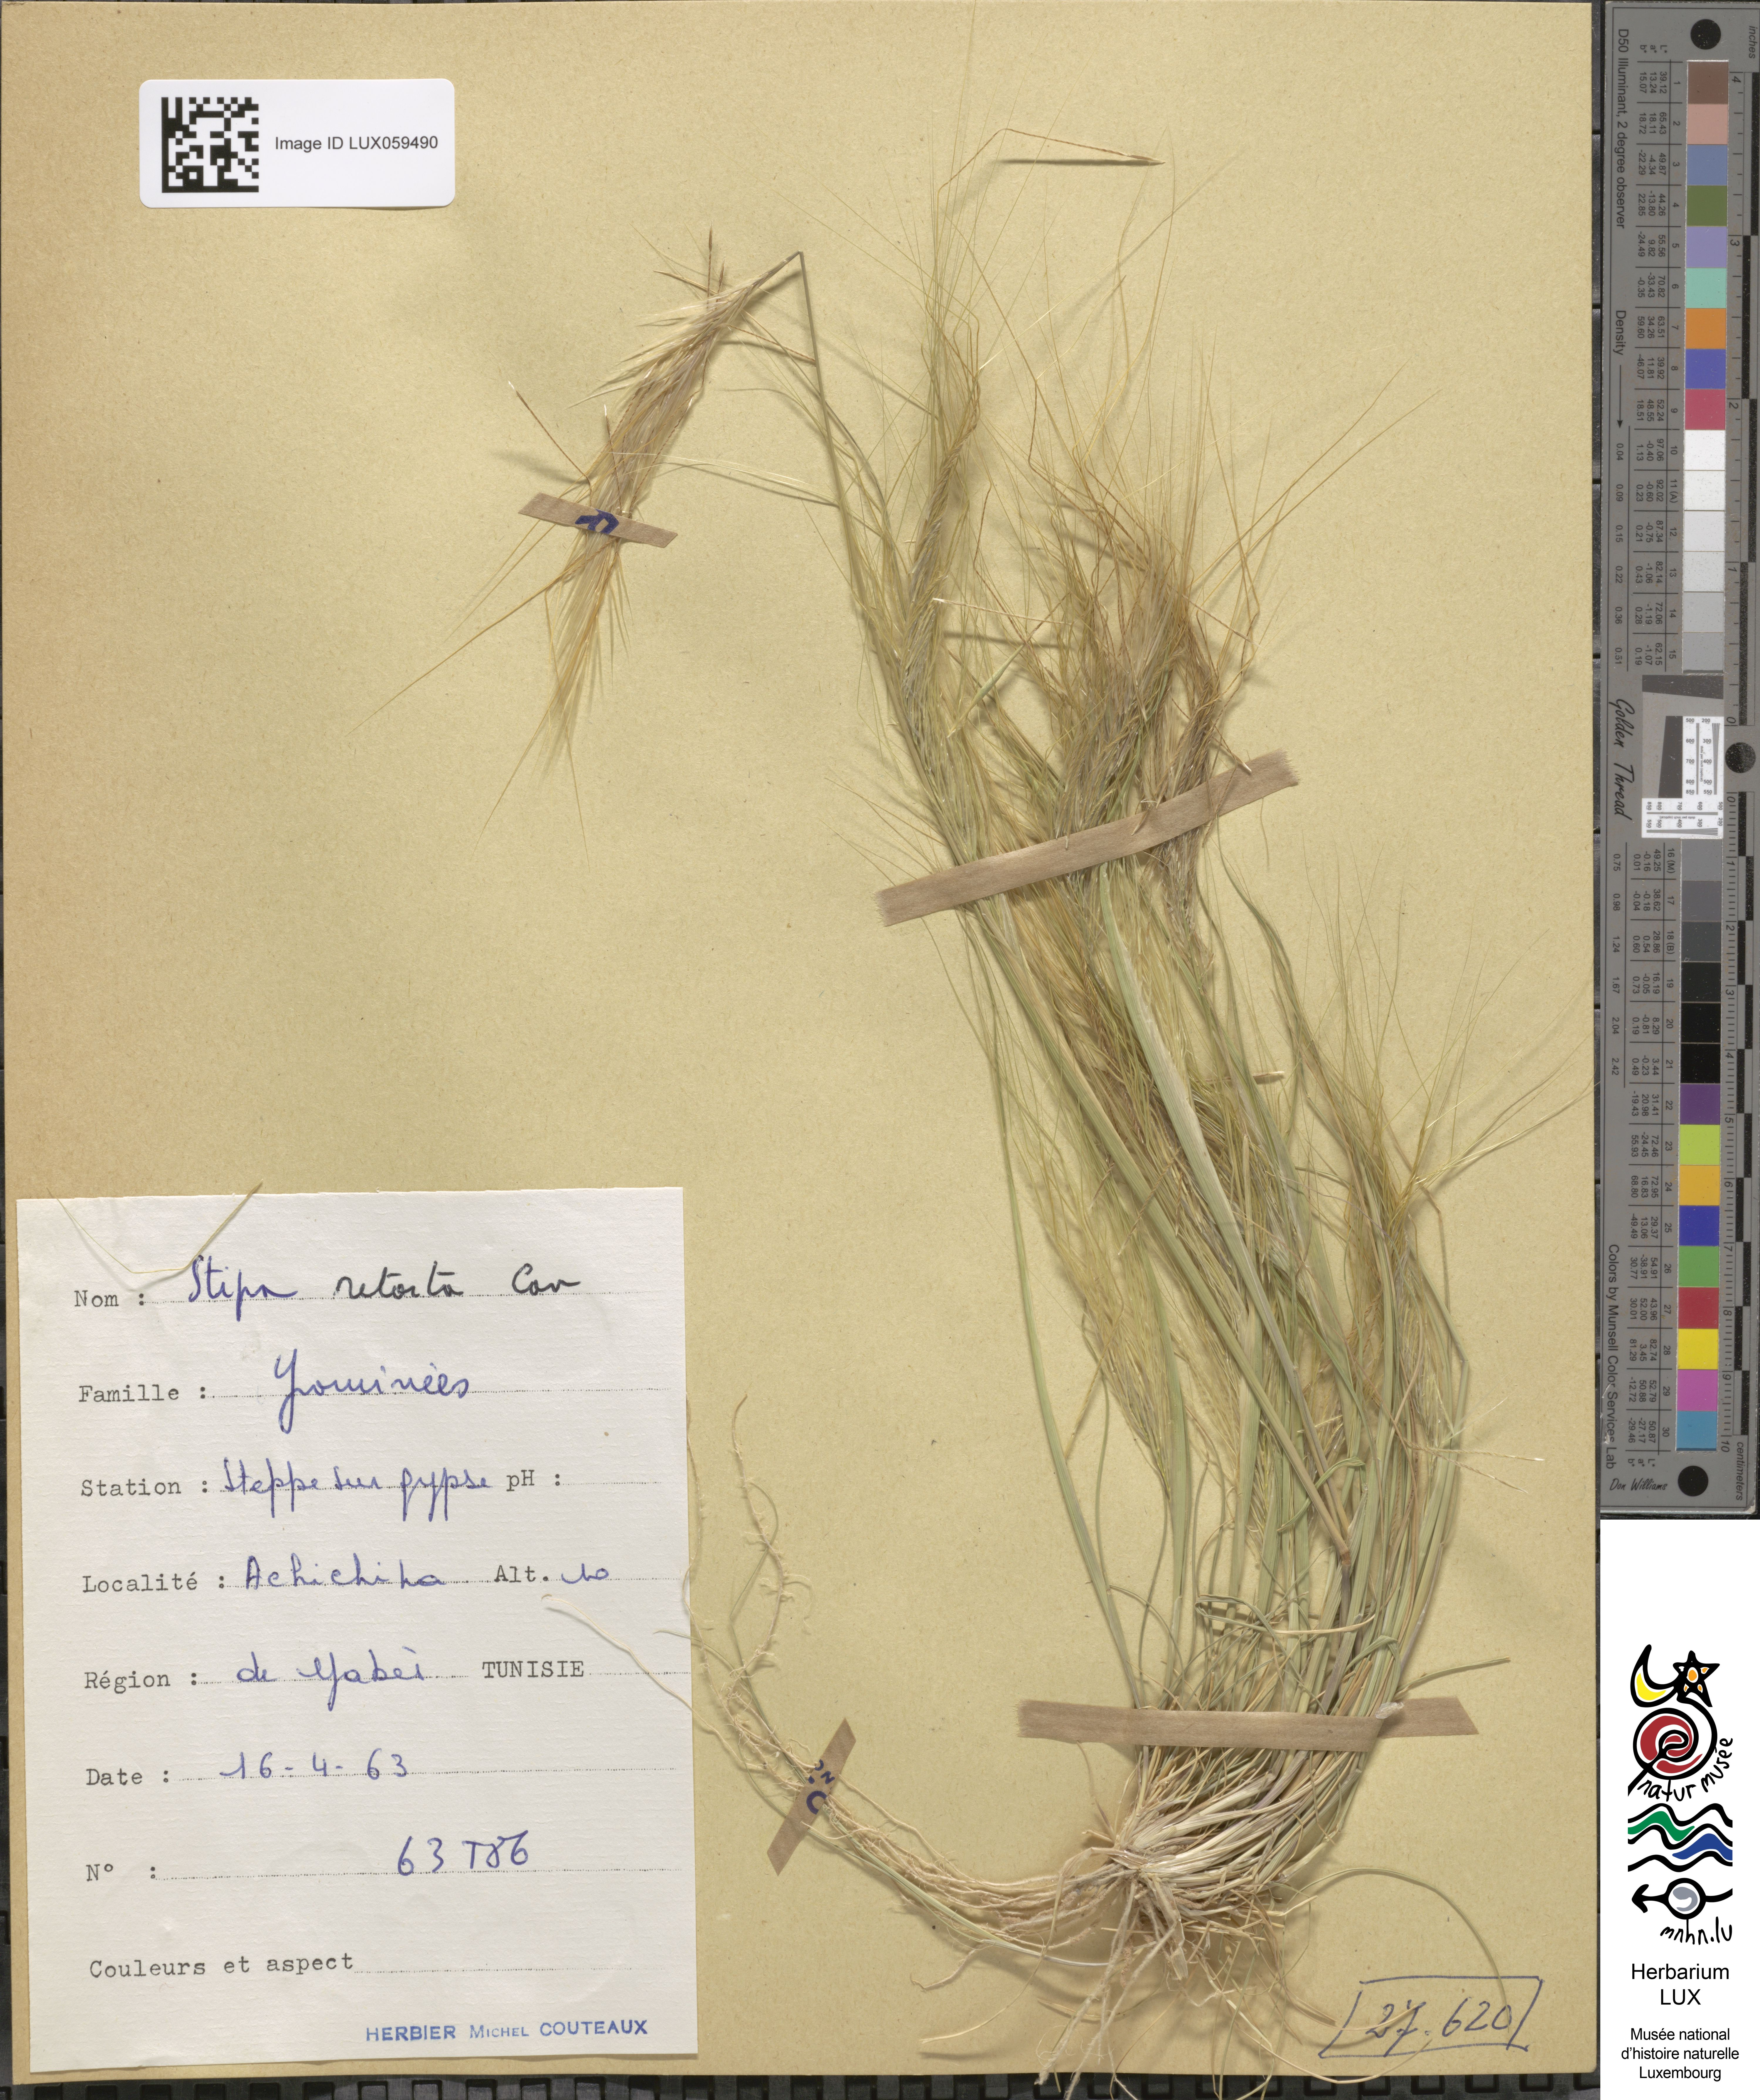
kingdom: Plantae
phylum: Tracheophyta
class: Liliopsida
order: Poales
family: Poaceae
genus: Stipellula
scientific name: Stipellula capensis
